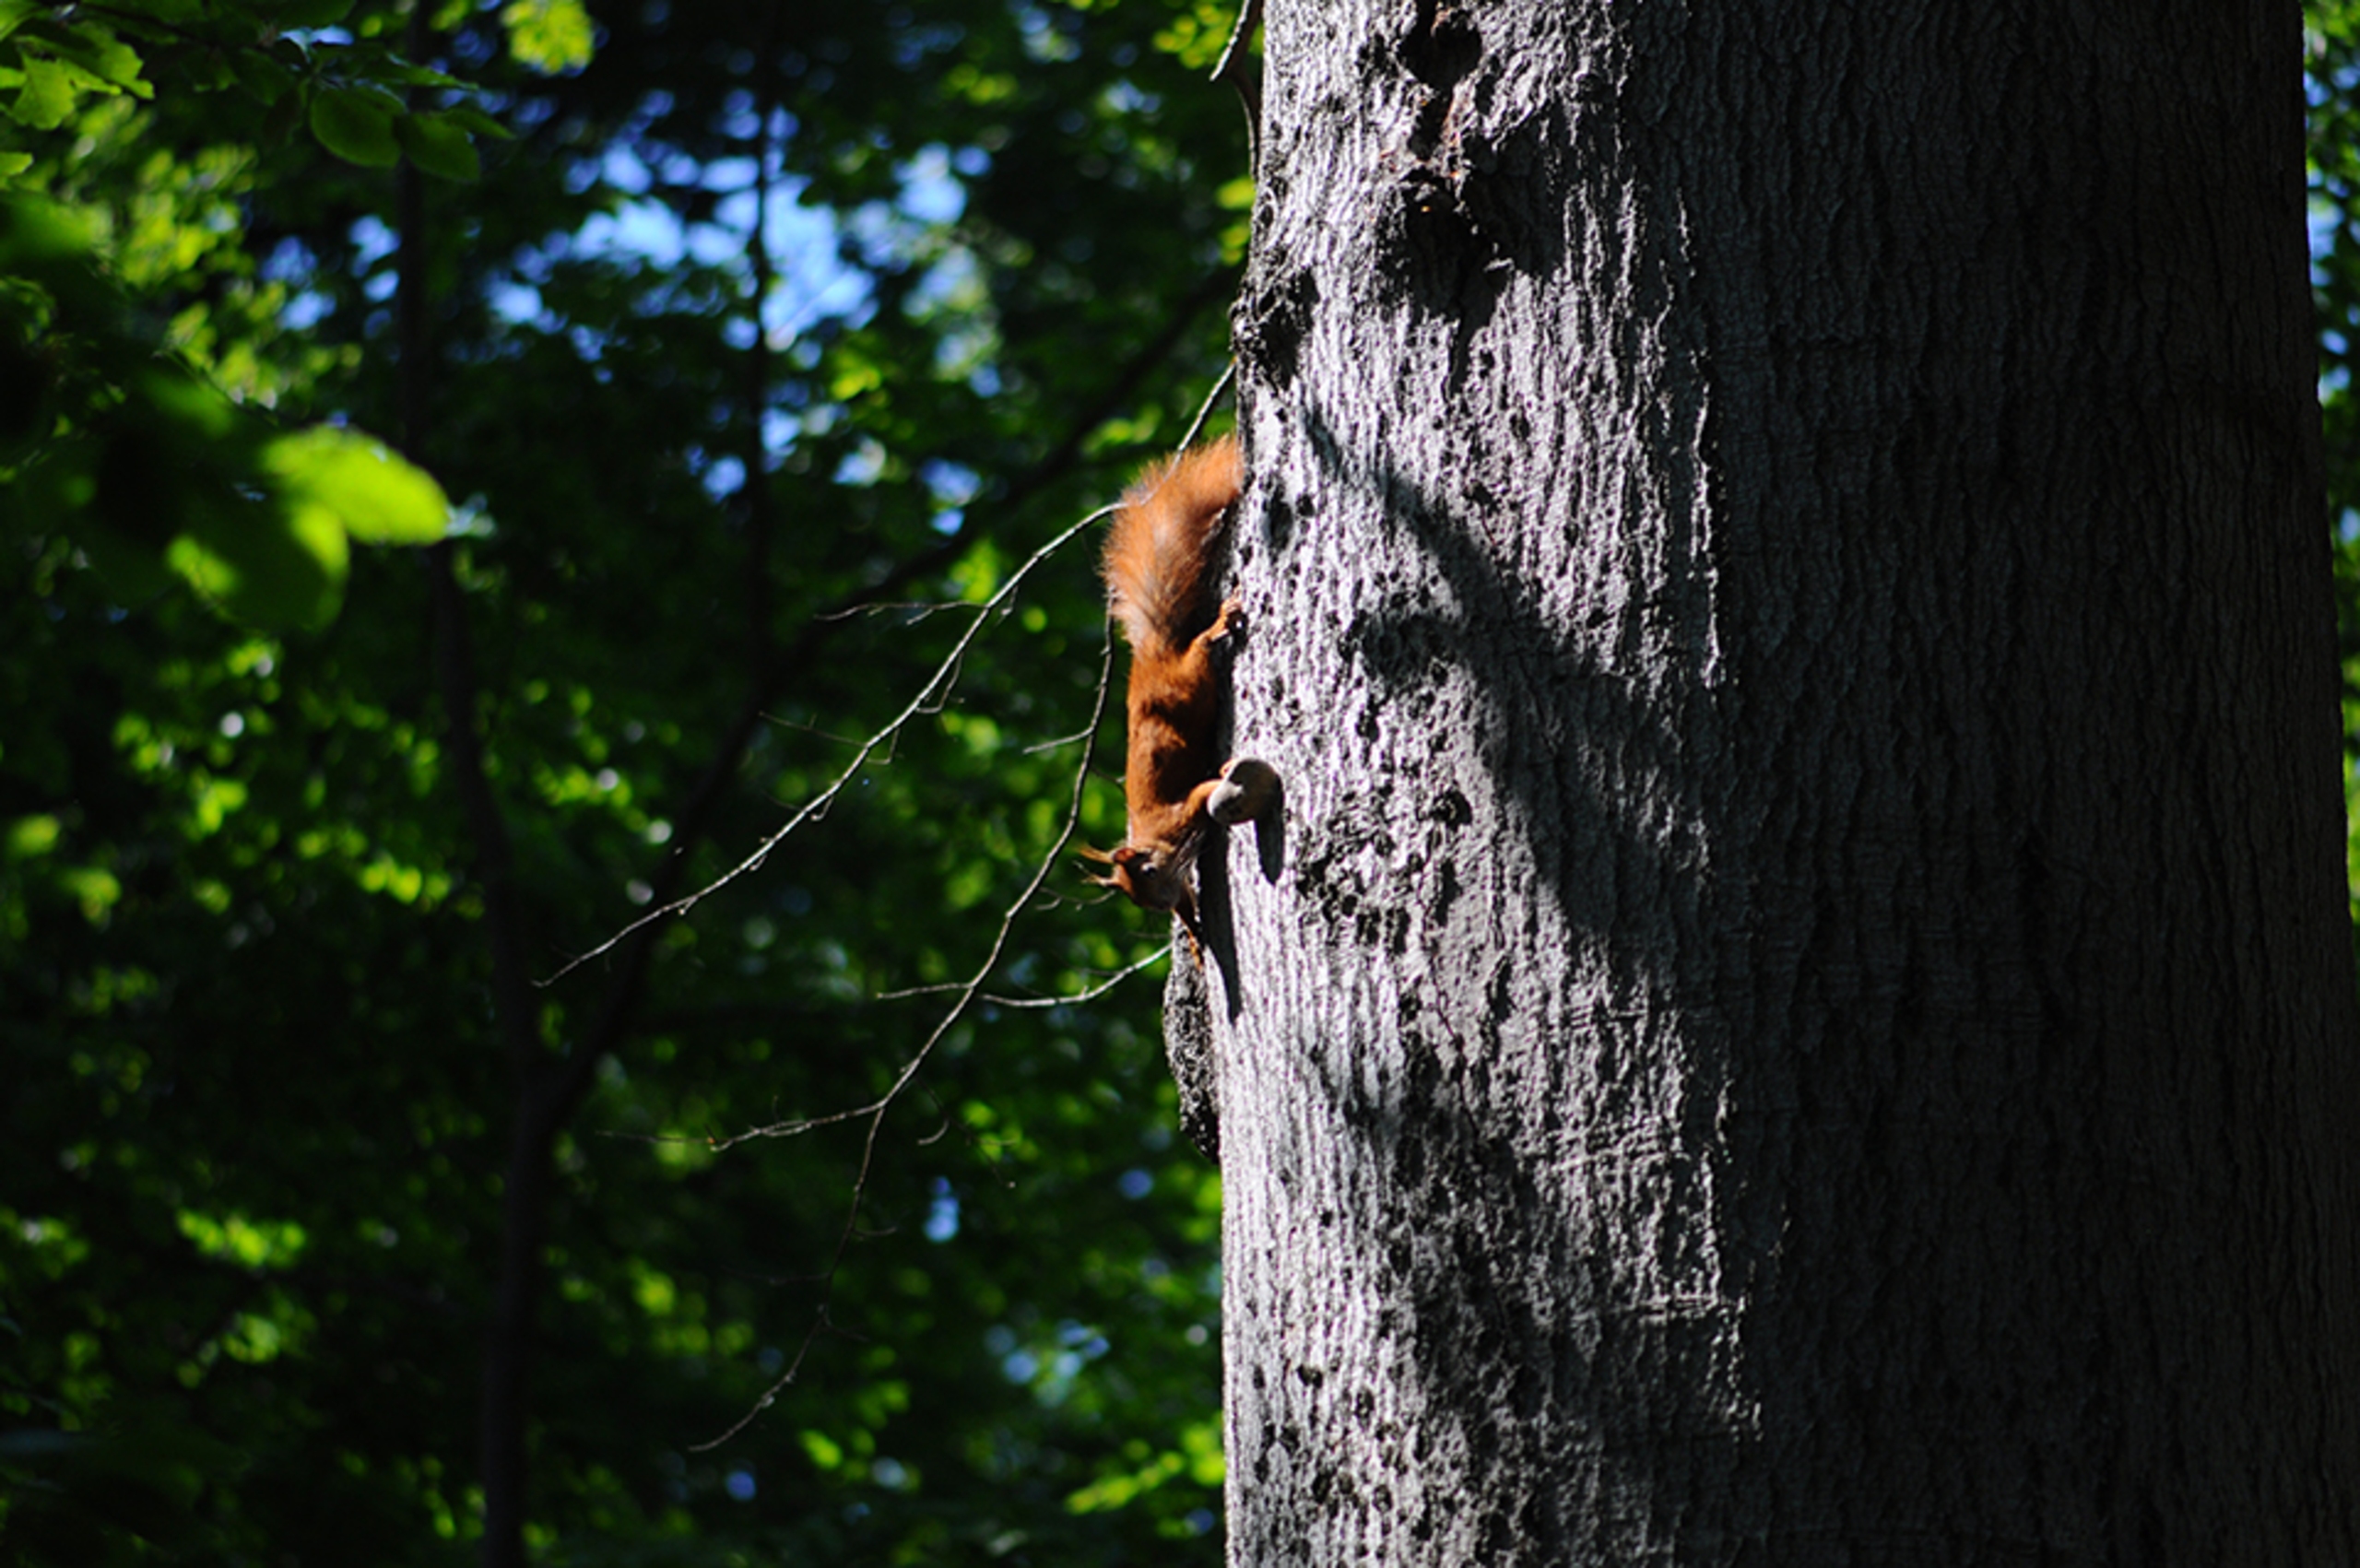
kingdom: Animalia
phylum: Chordata
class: Mammalia
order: Rodentia
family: Sciuridae
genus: Sciurus
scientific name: Sciurus vulgaris
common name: Egern
